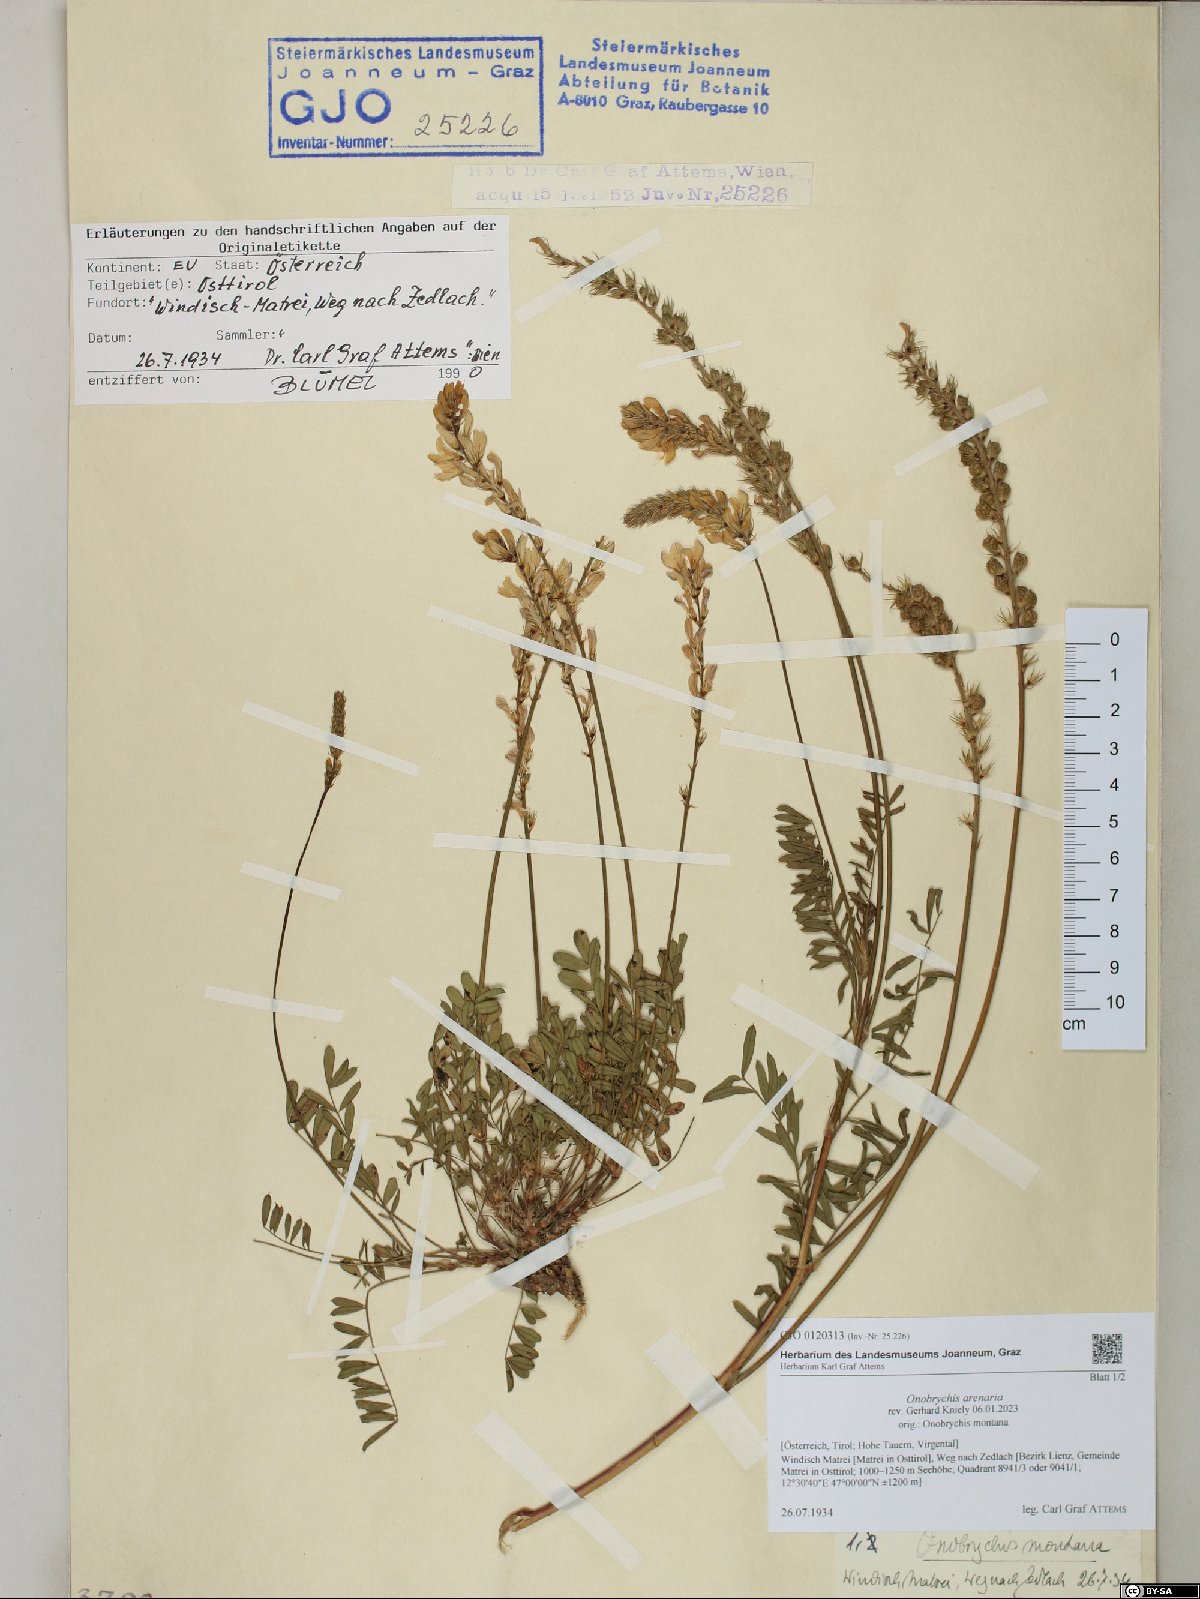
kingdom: Plantae
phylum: Tracheophyta
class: Magnoliopsida
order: Fabales
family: Fabaceae
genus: Onobrychis
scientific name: Onobrychis arenaria
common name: Sand esparcet
